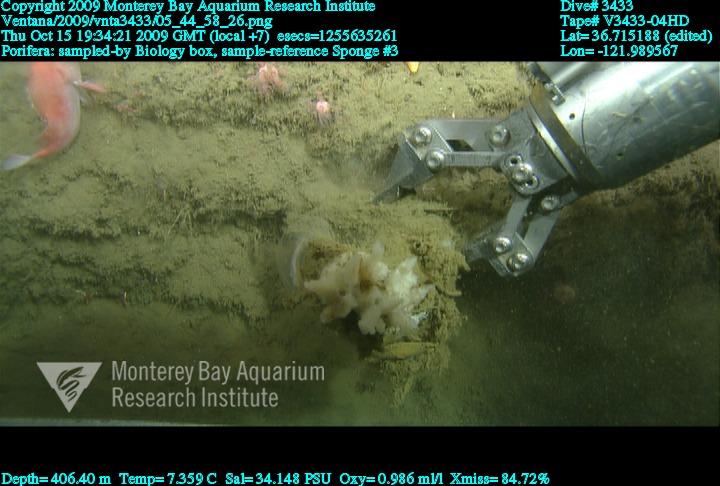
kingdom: Animalia
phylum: Porifera
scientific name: Porifera
